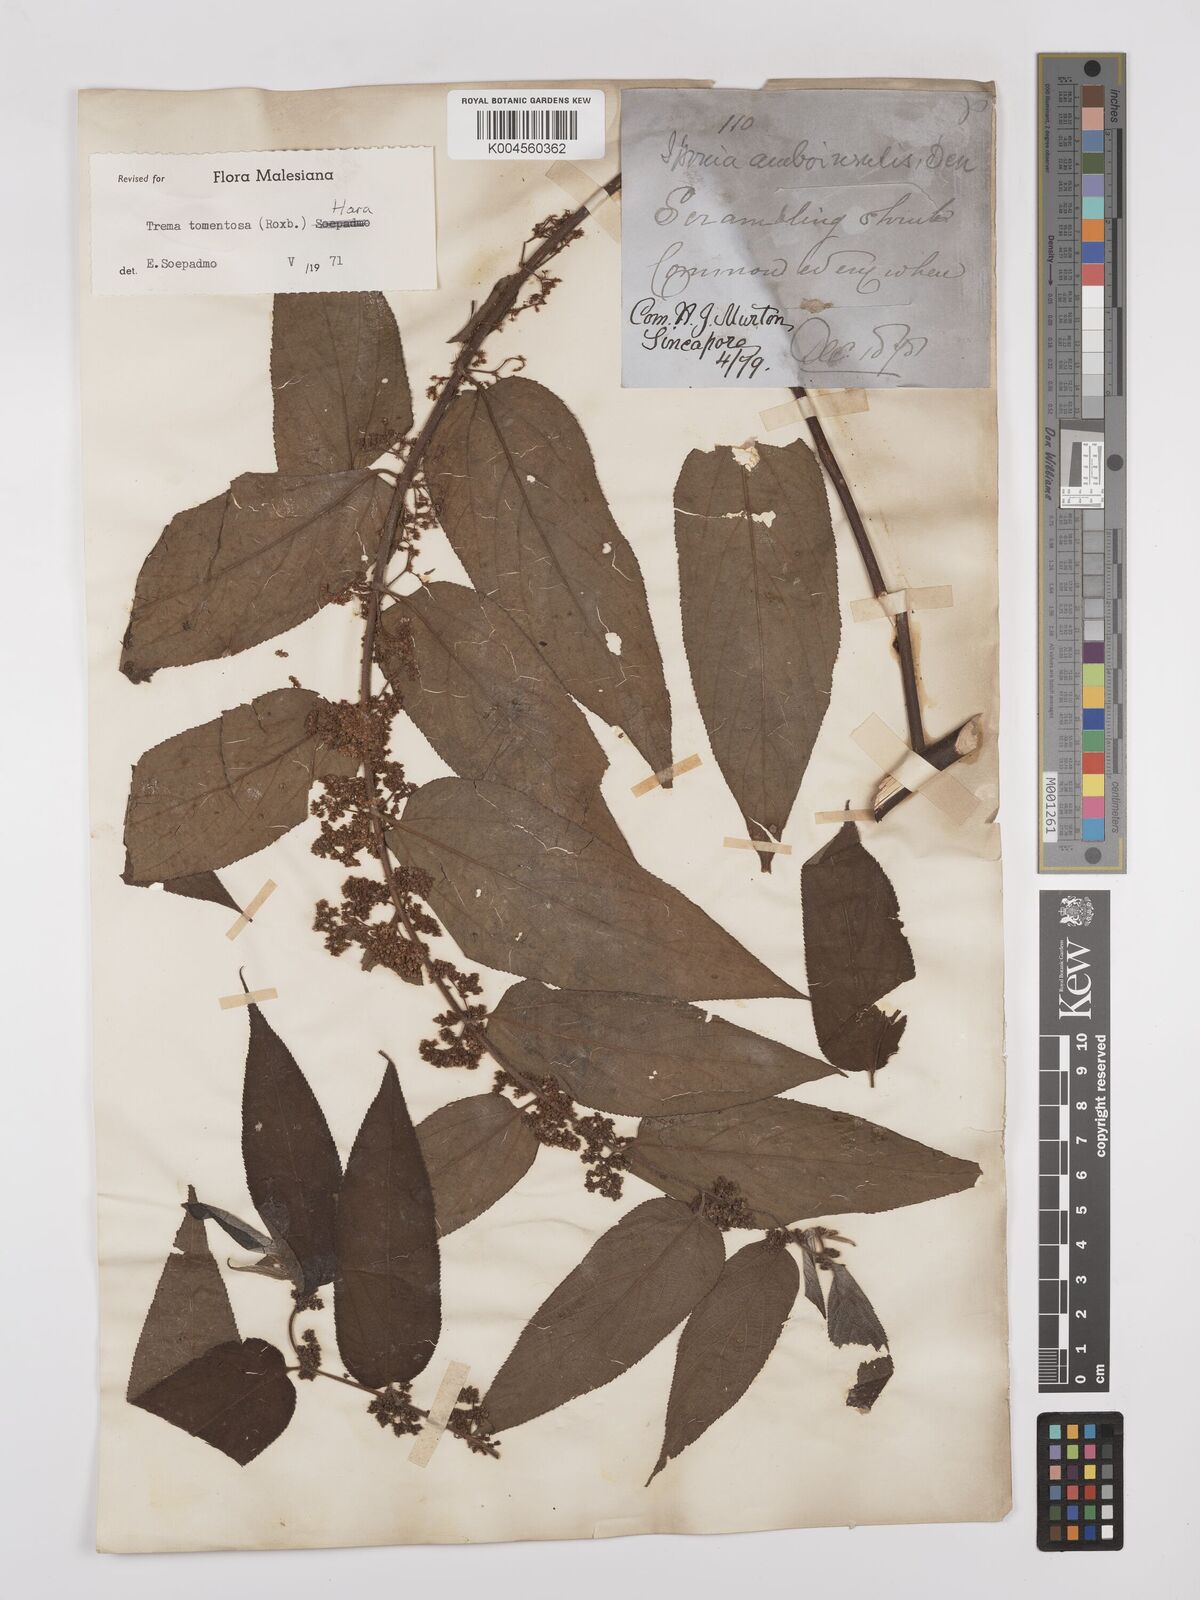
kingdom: Plantae
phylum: Tracheophyta
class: Magnoliopsida
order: Rosales
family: Cannabaceae
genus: Trema
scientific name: Trema tomentosum
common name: Peach-leaf-poisonbush
